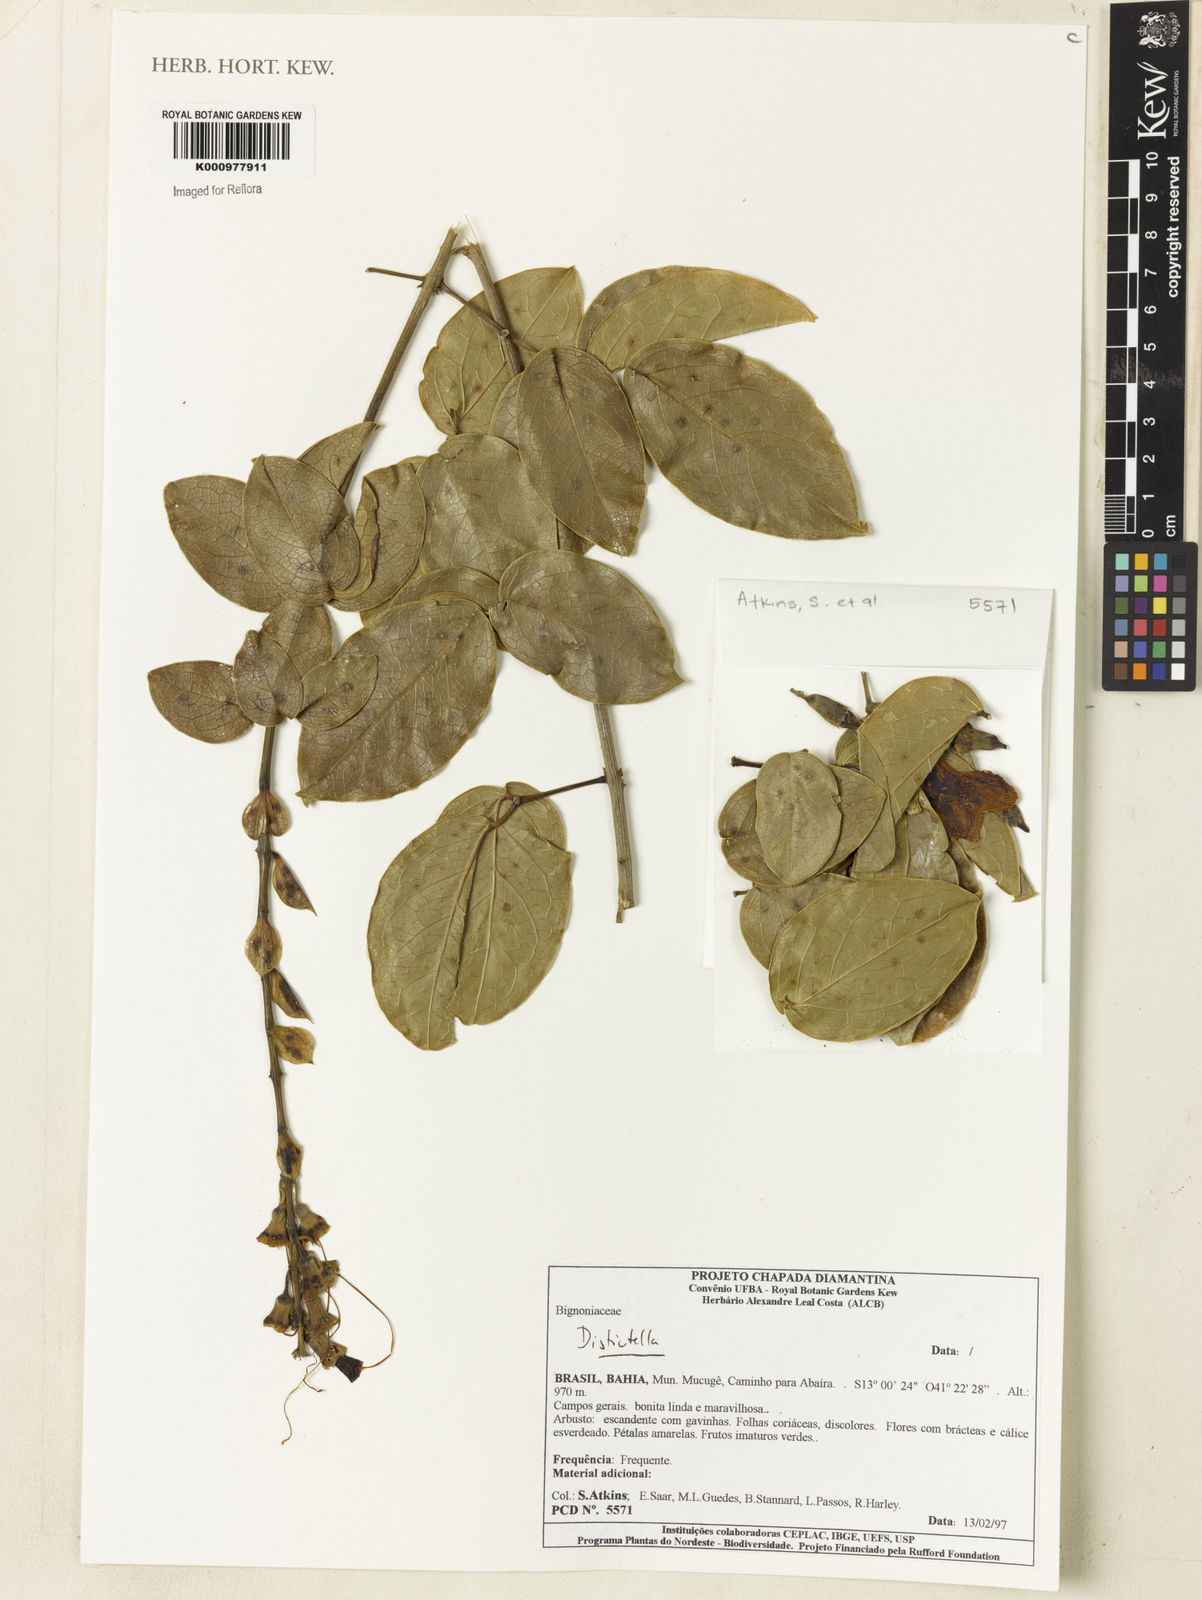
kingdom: Plantae
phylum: Tracheophyta
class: Magnoliopsida
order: Lamiales
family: Bignoniaceae
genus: Amphilophium
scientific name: Amphilophium
